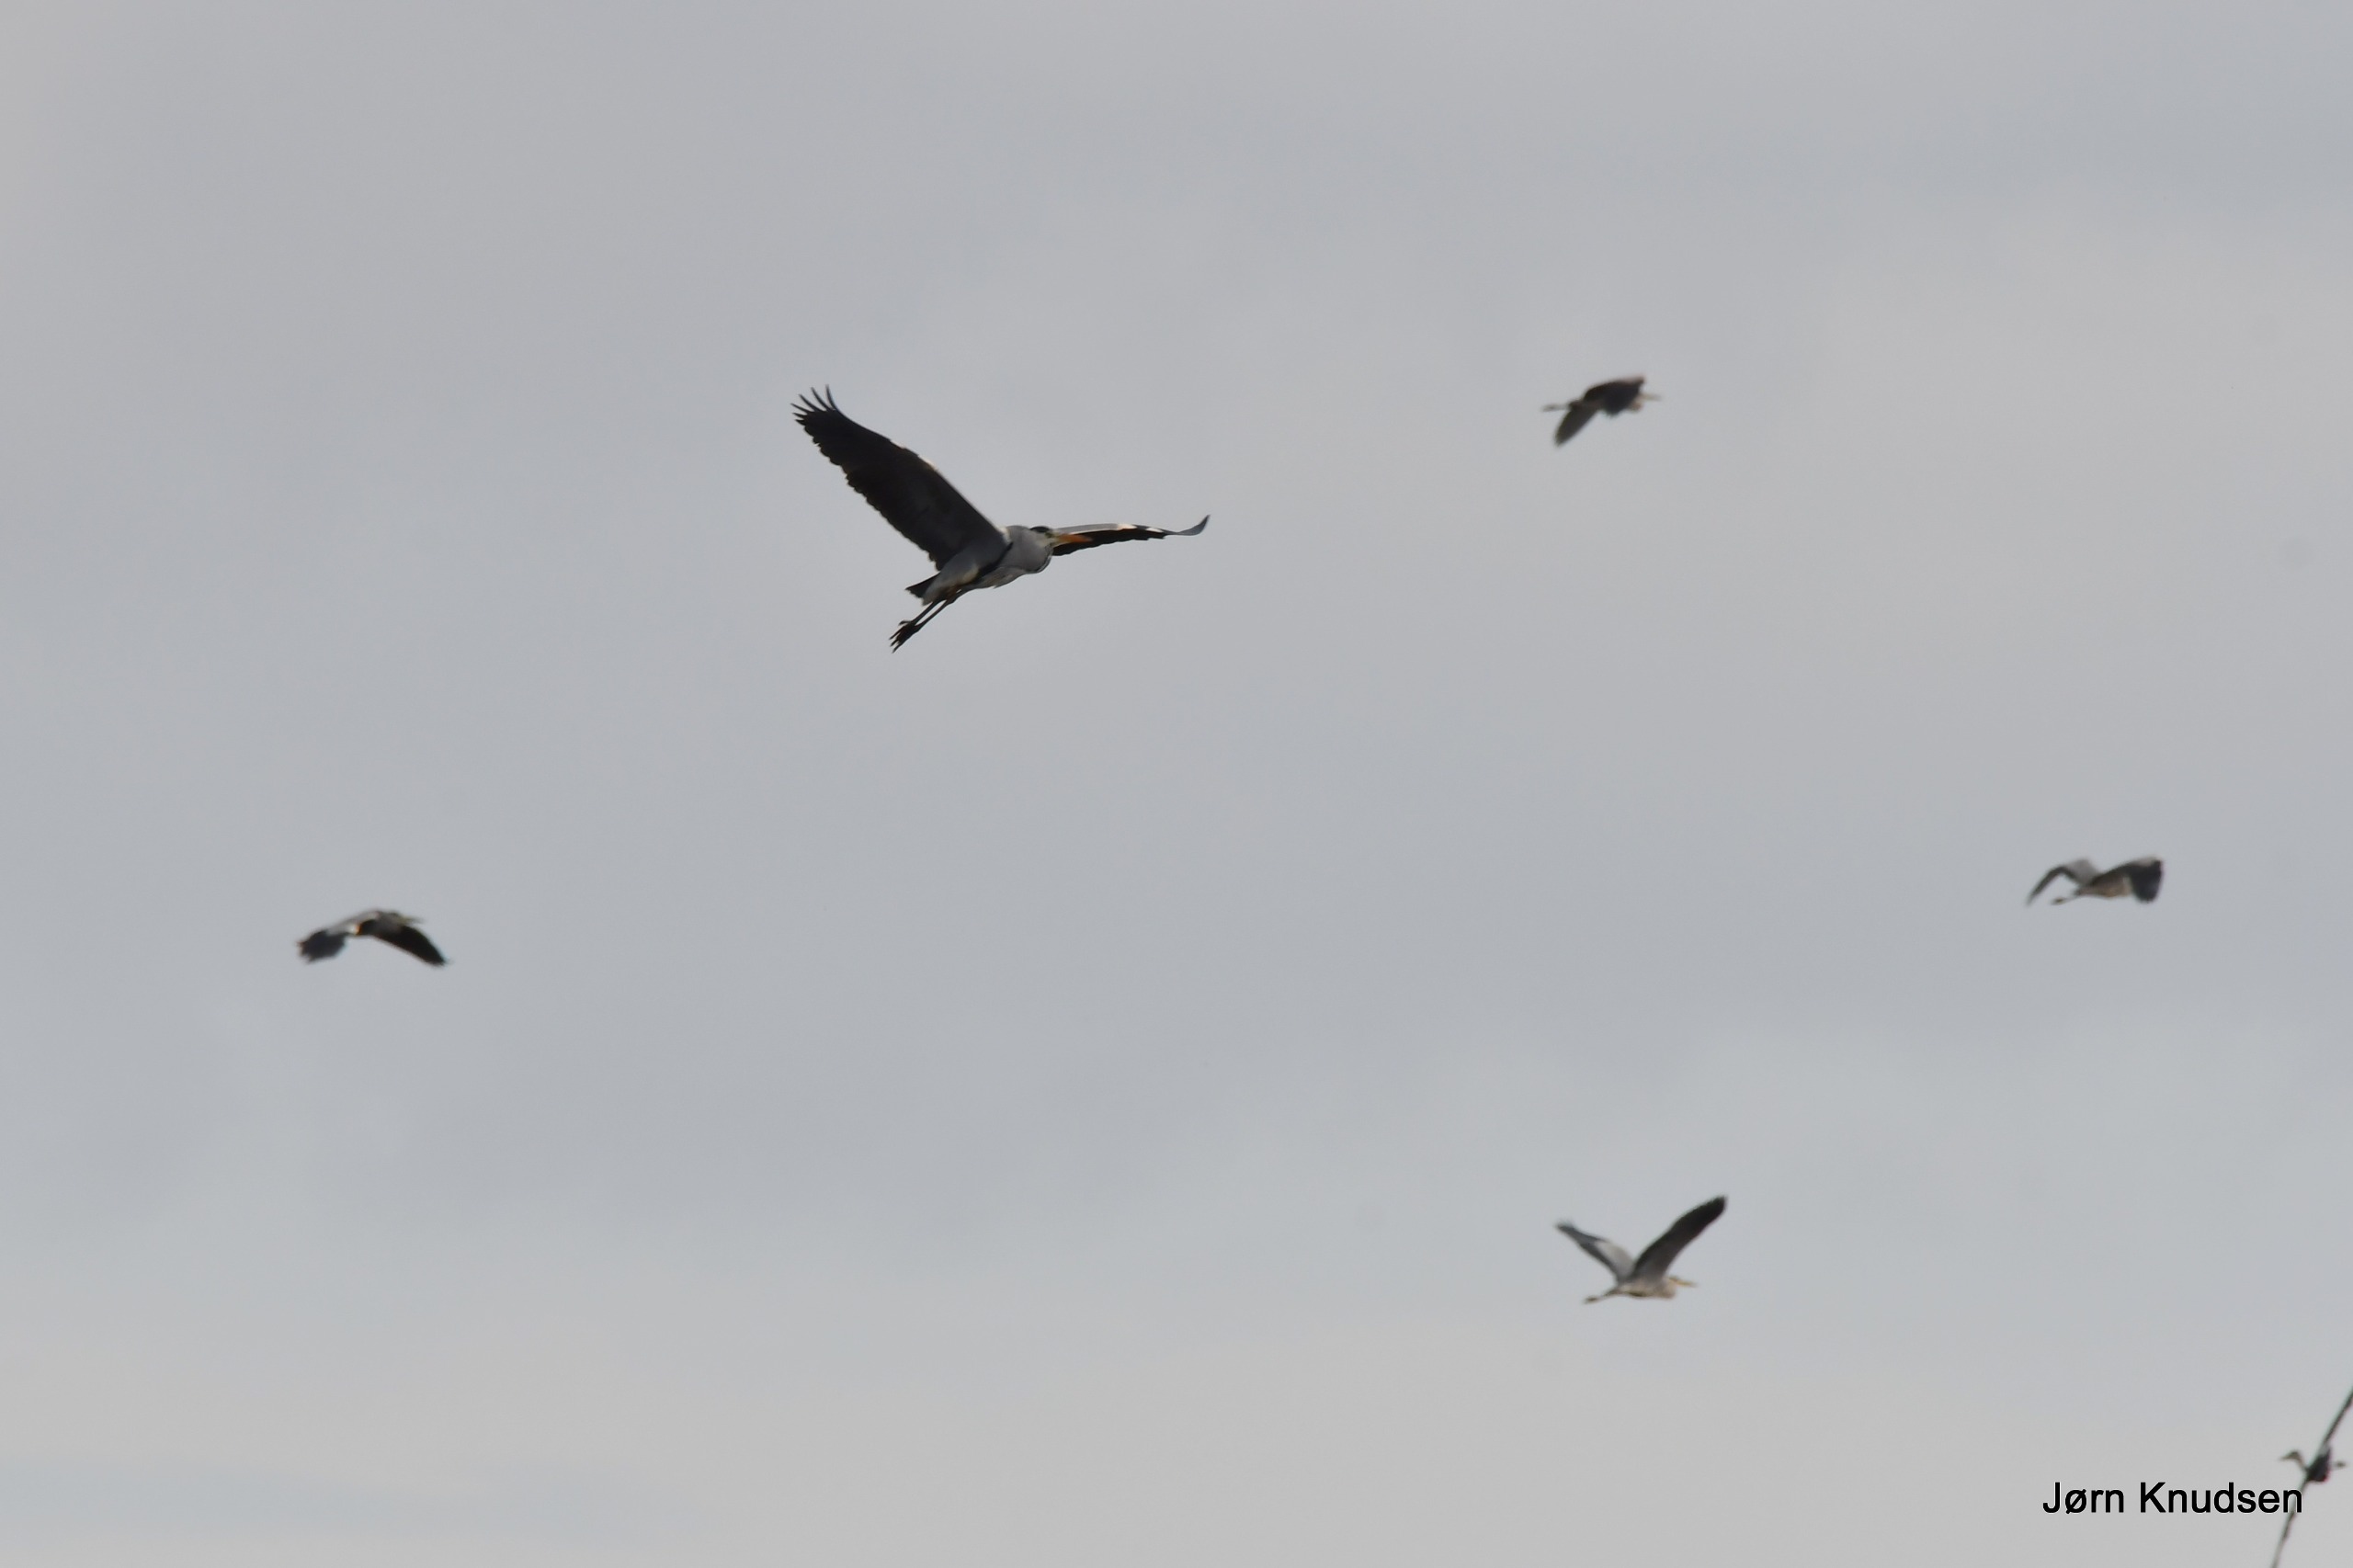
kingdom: Animalia
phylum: Chordata
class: Aves
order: Pelecaniformes
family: Ardeidae
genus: Ardea
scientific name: Ardea cinerea
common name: Fiskehejre
